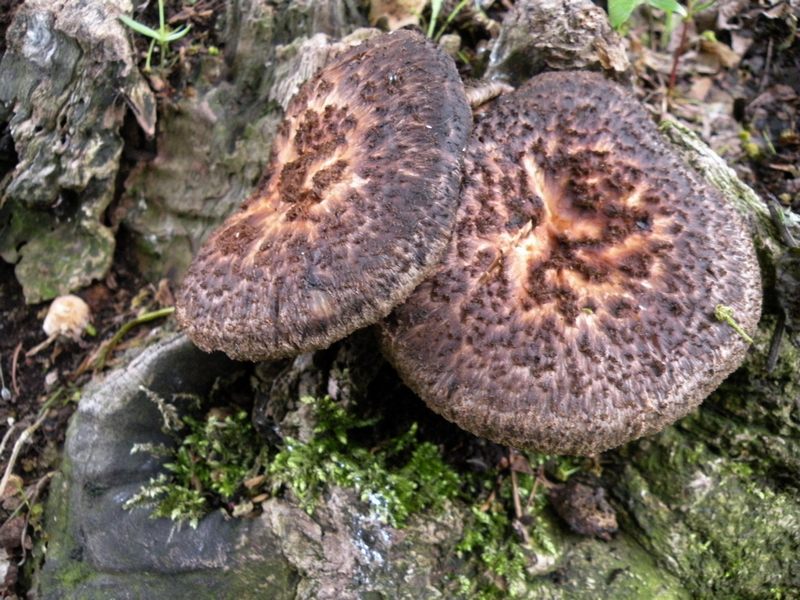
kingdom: Fungi
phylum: Basidiomycota
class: Agaricomycetes
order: Polyporales
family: Polyporaceae
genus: Polyporus
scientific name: Polyporus tuberaster
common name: knoldet stilkporesvamp
